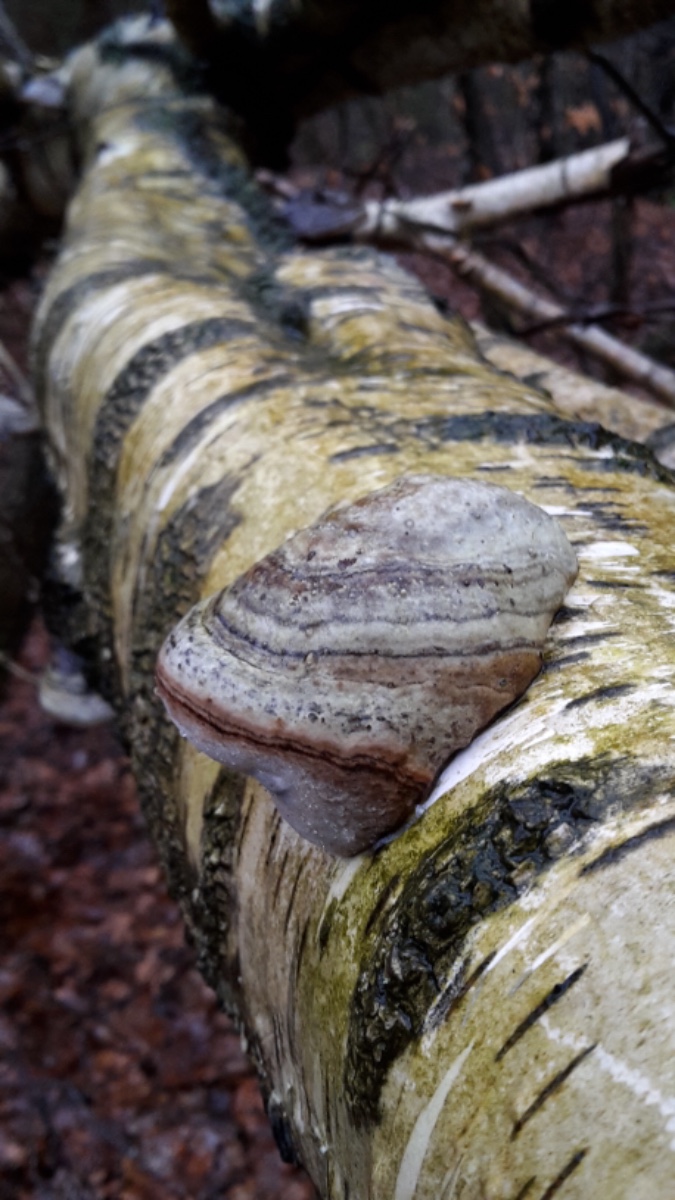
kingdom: Fungi
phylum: Basidiomycota
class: Agaricomycetes
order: Polyporales
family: Polyporaceae
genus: Fomes
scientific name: Fomes fomentarius
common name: tøndersvamp
